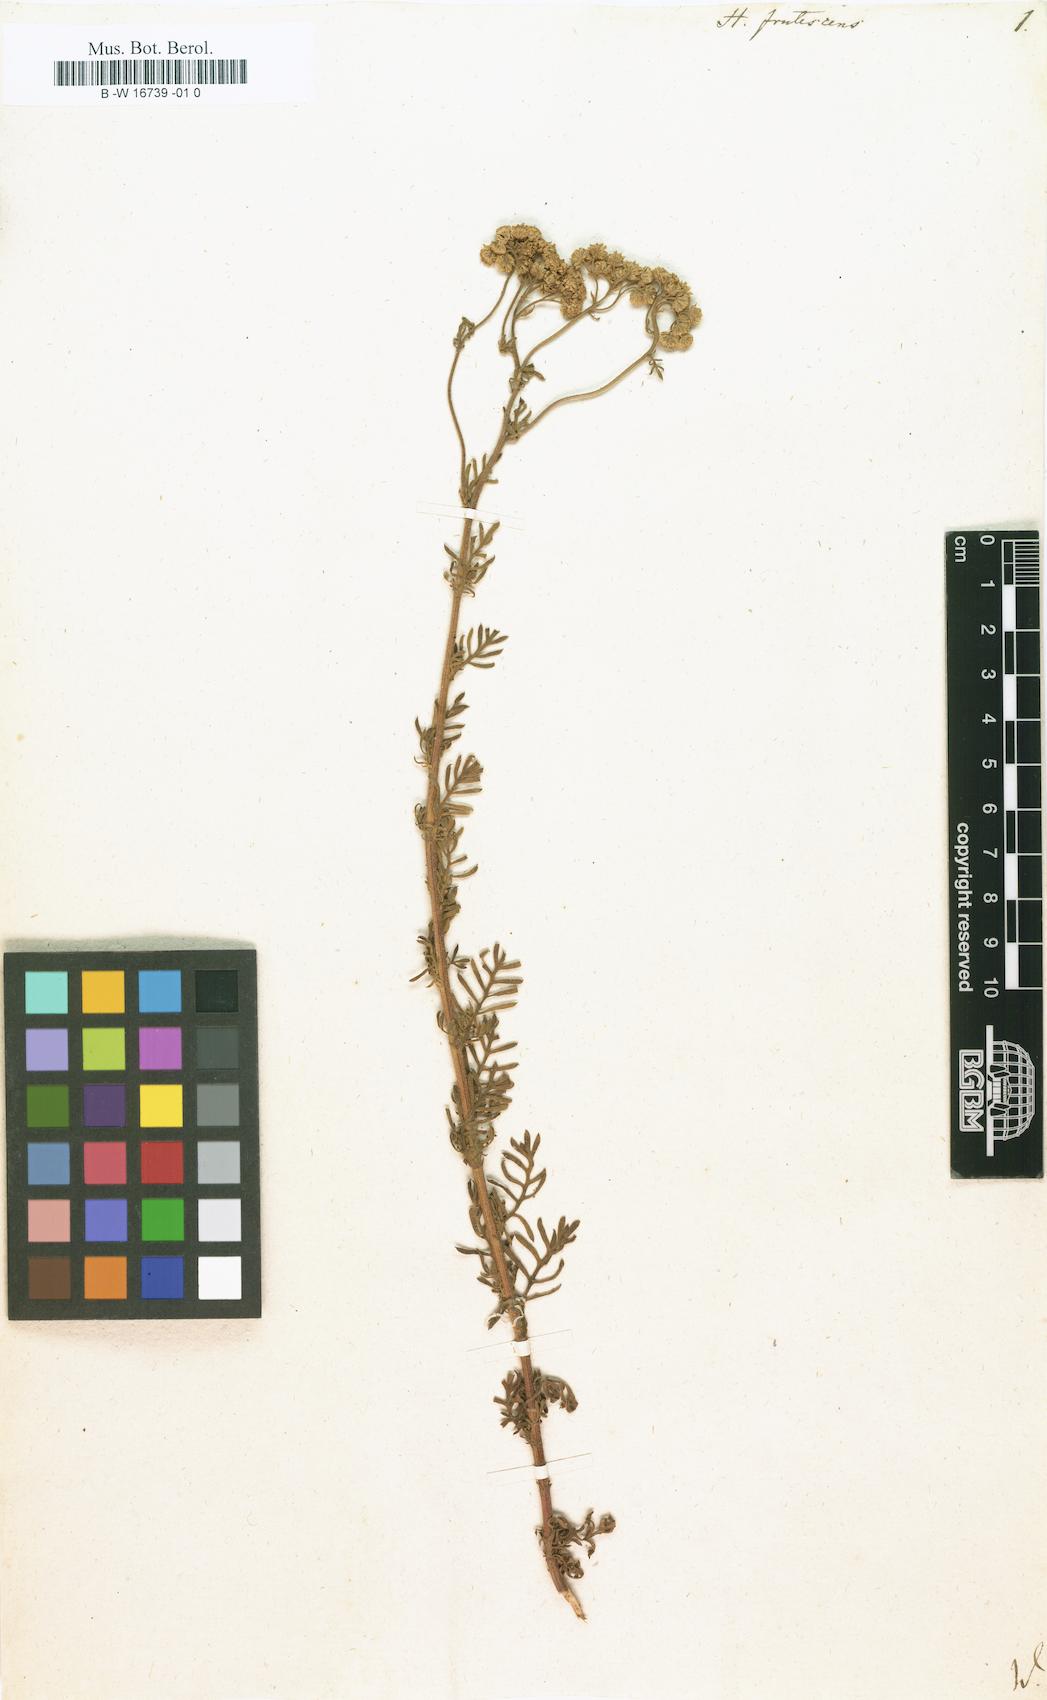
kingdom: Plantae
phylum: Tracheophyta
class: Magnoliopsida
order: Asterales
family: Asteraceae
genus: Hippia
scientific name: Hippia frutescens
